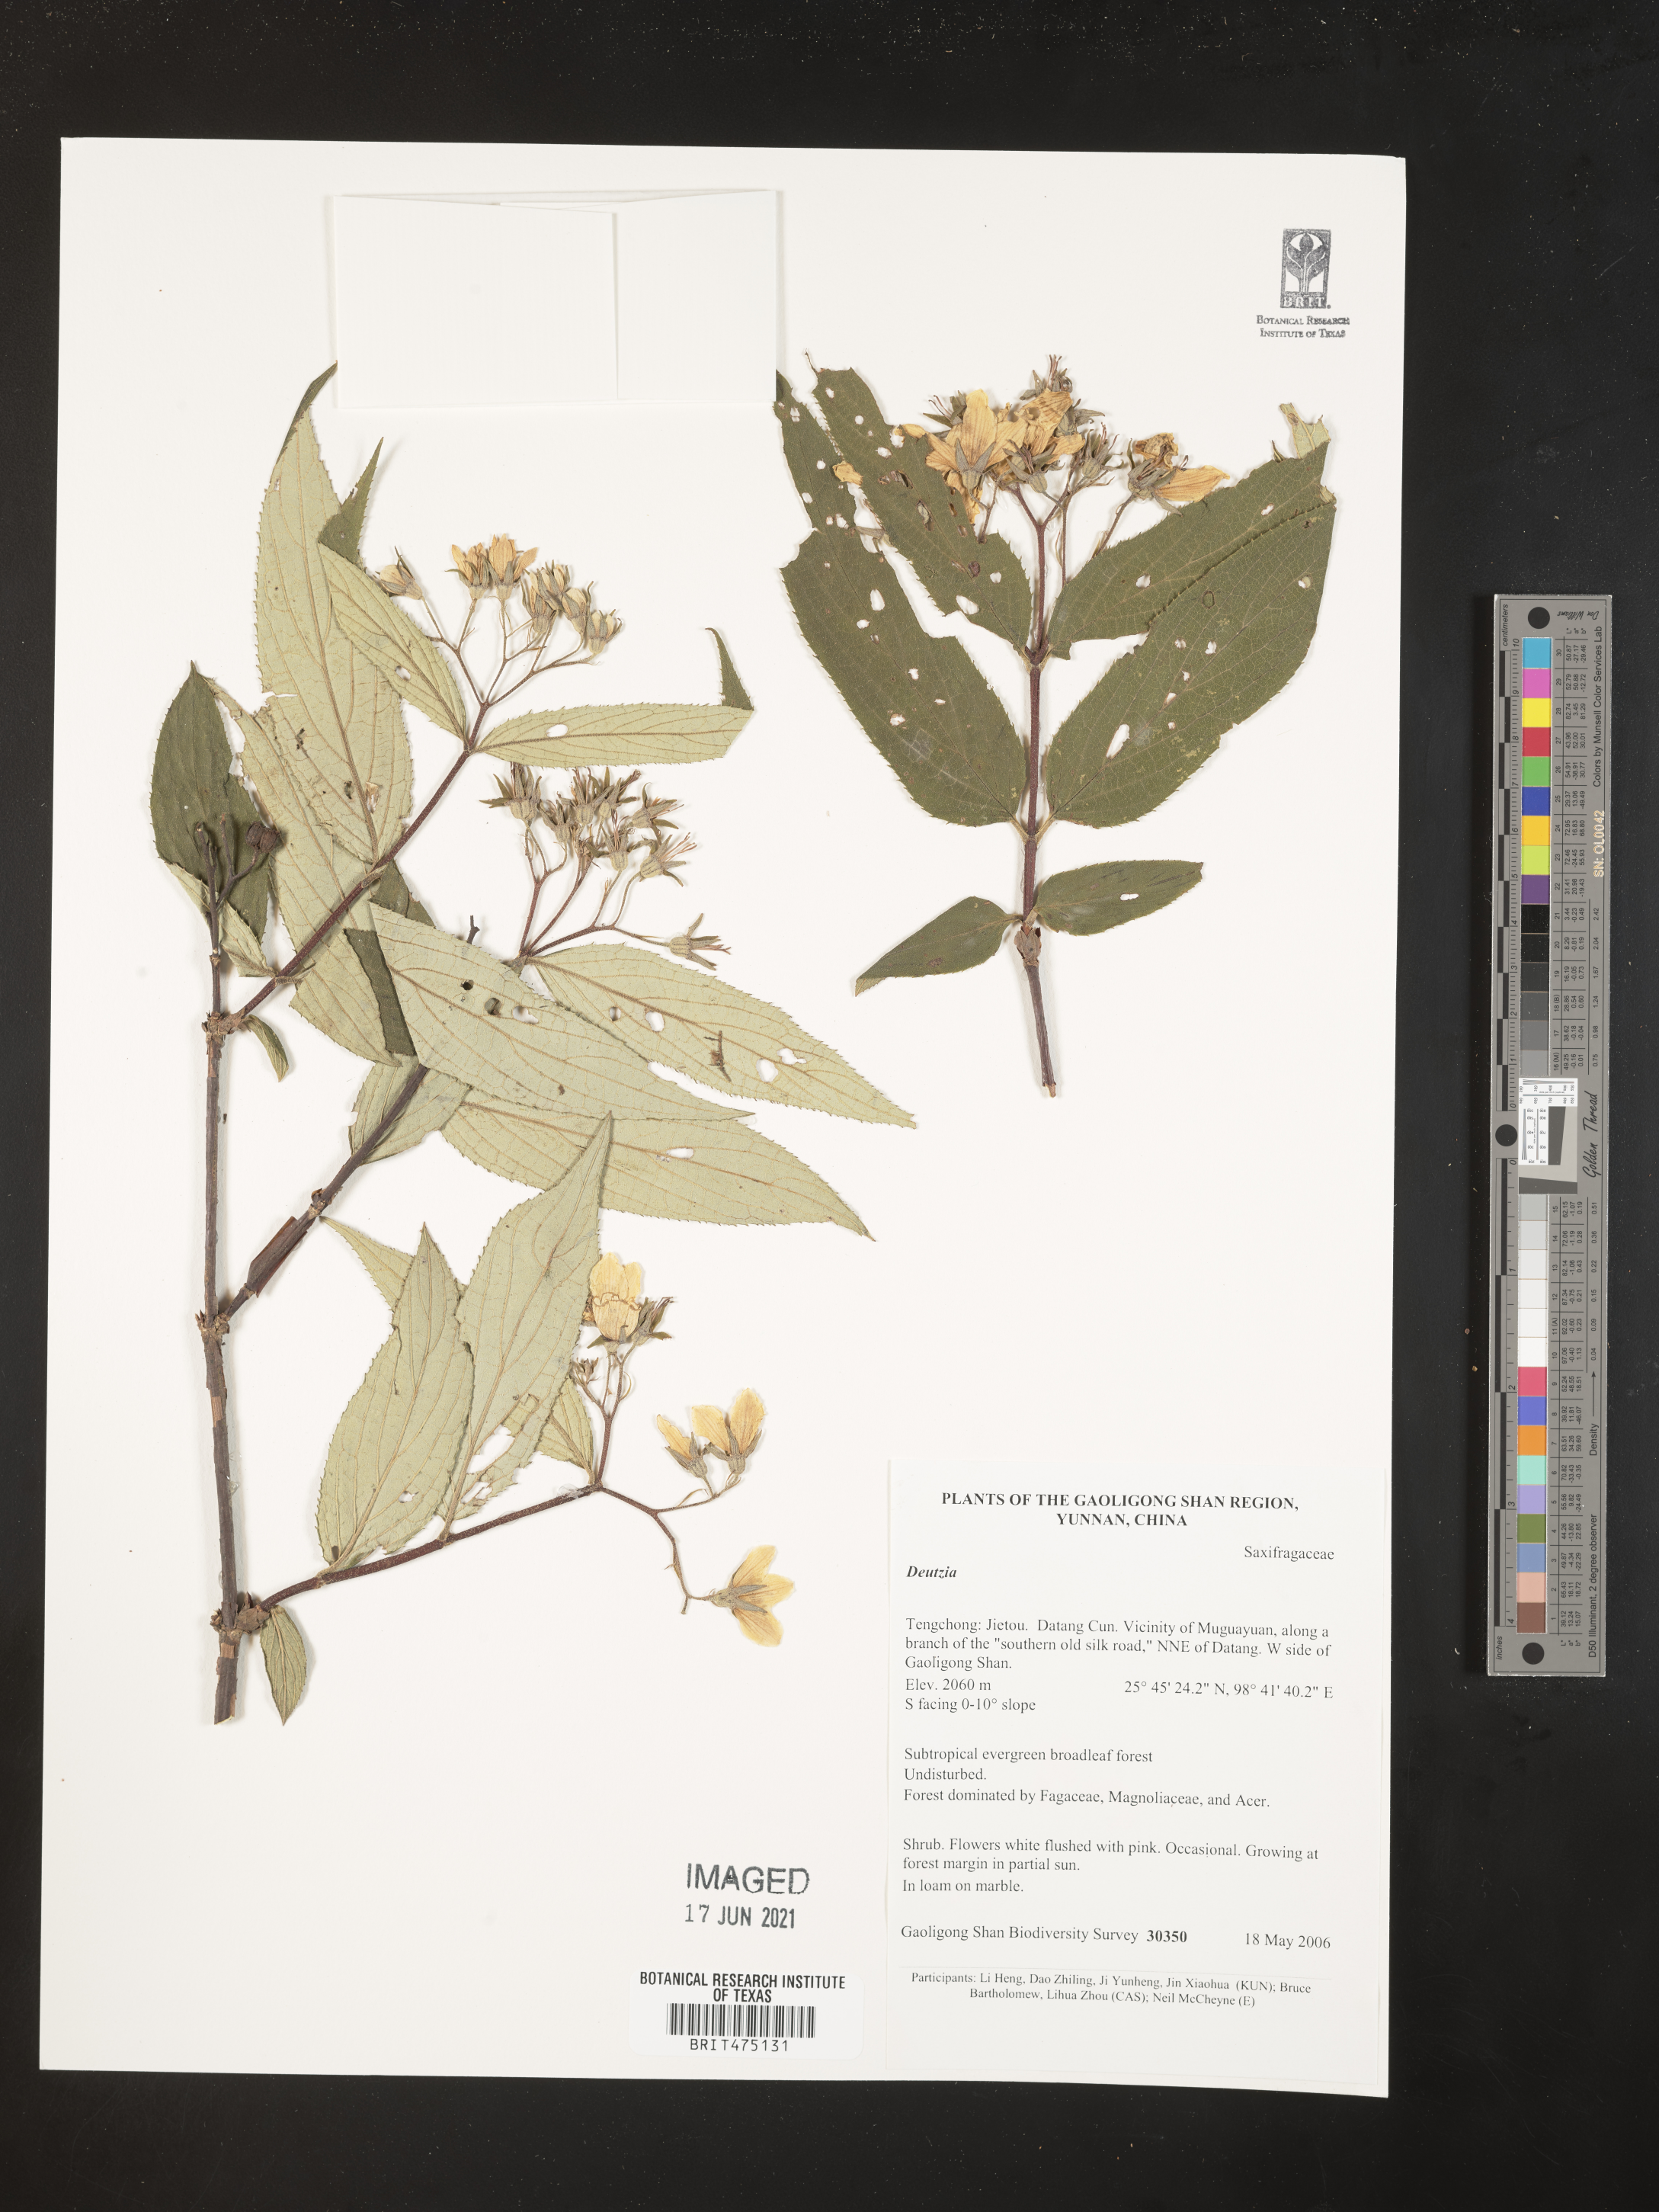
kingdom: Plantae
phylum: Tracheophyta
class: Magnoliopsida
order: Cornales
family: Hydrangeaceae
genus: Deutzia
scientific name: Deutzia
